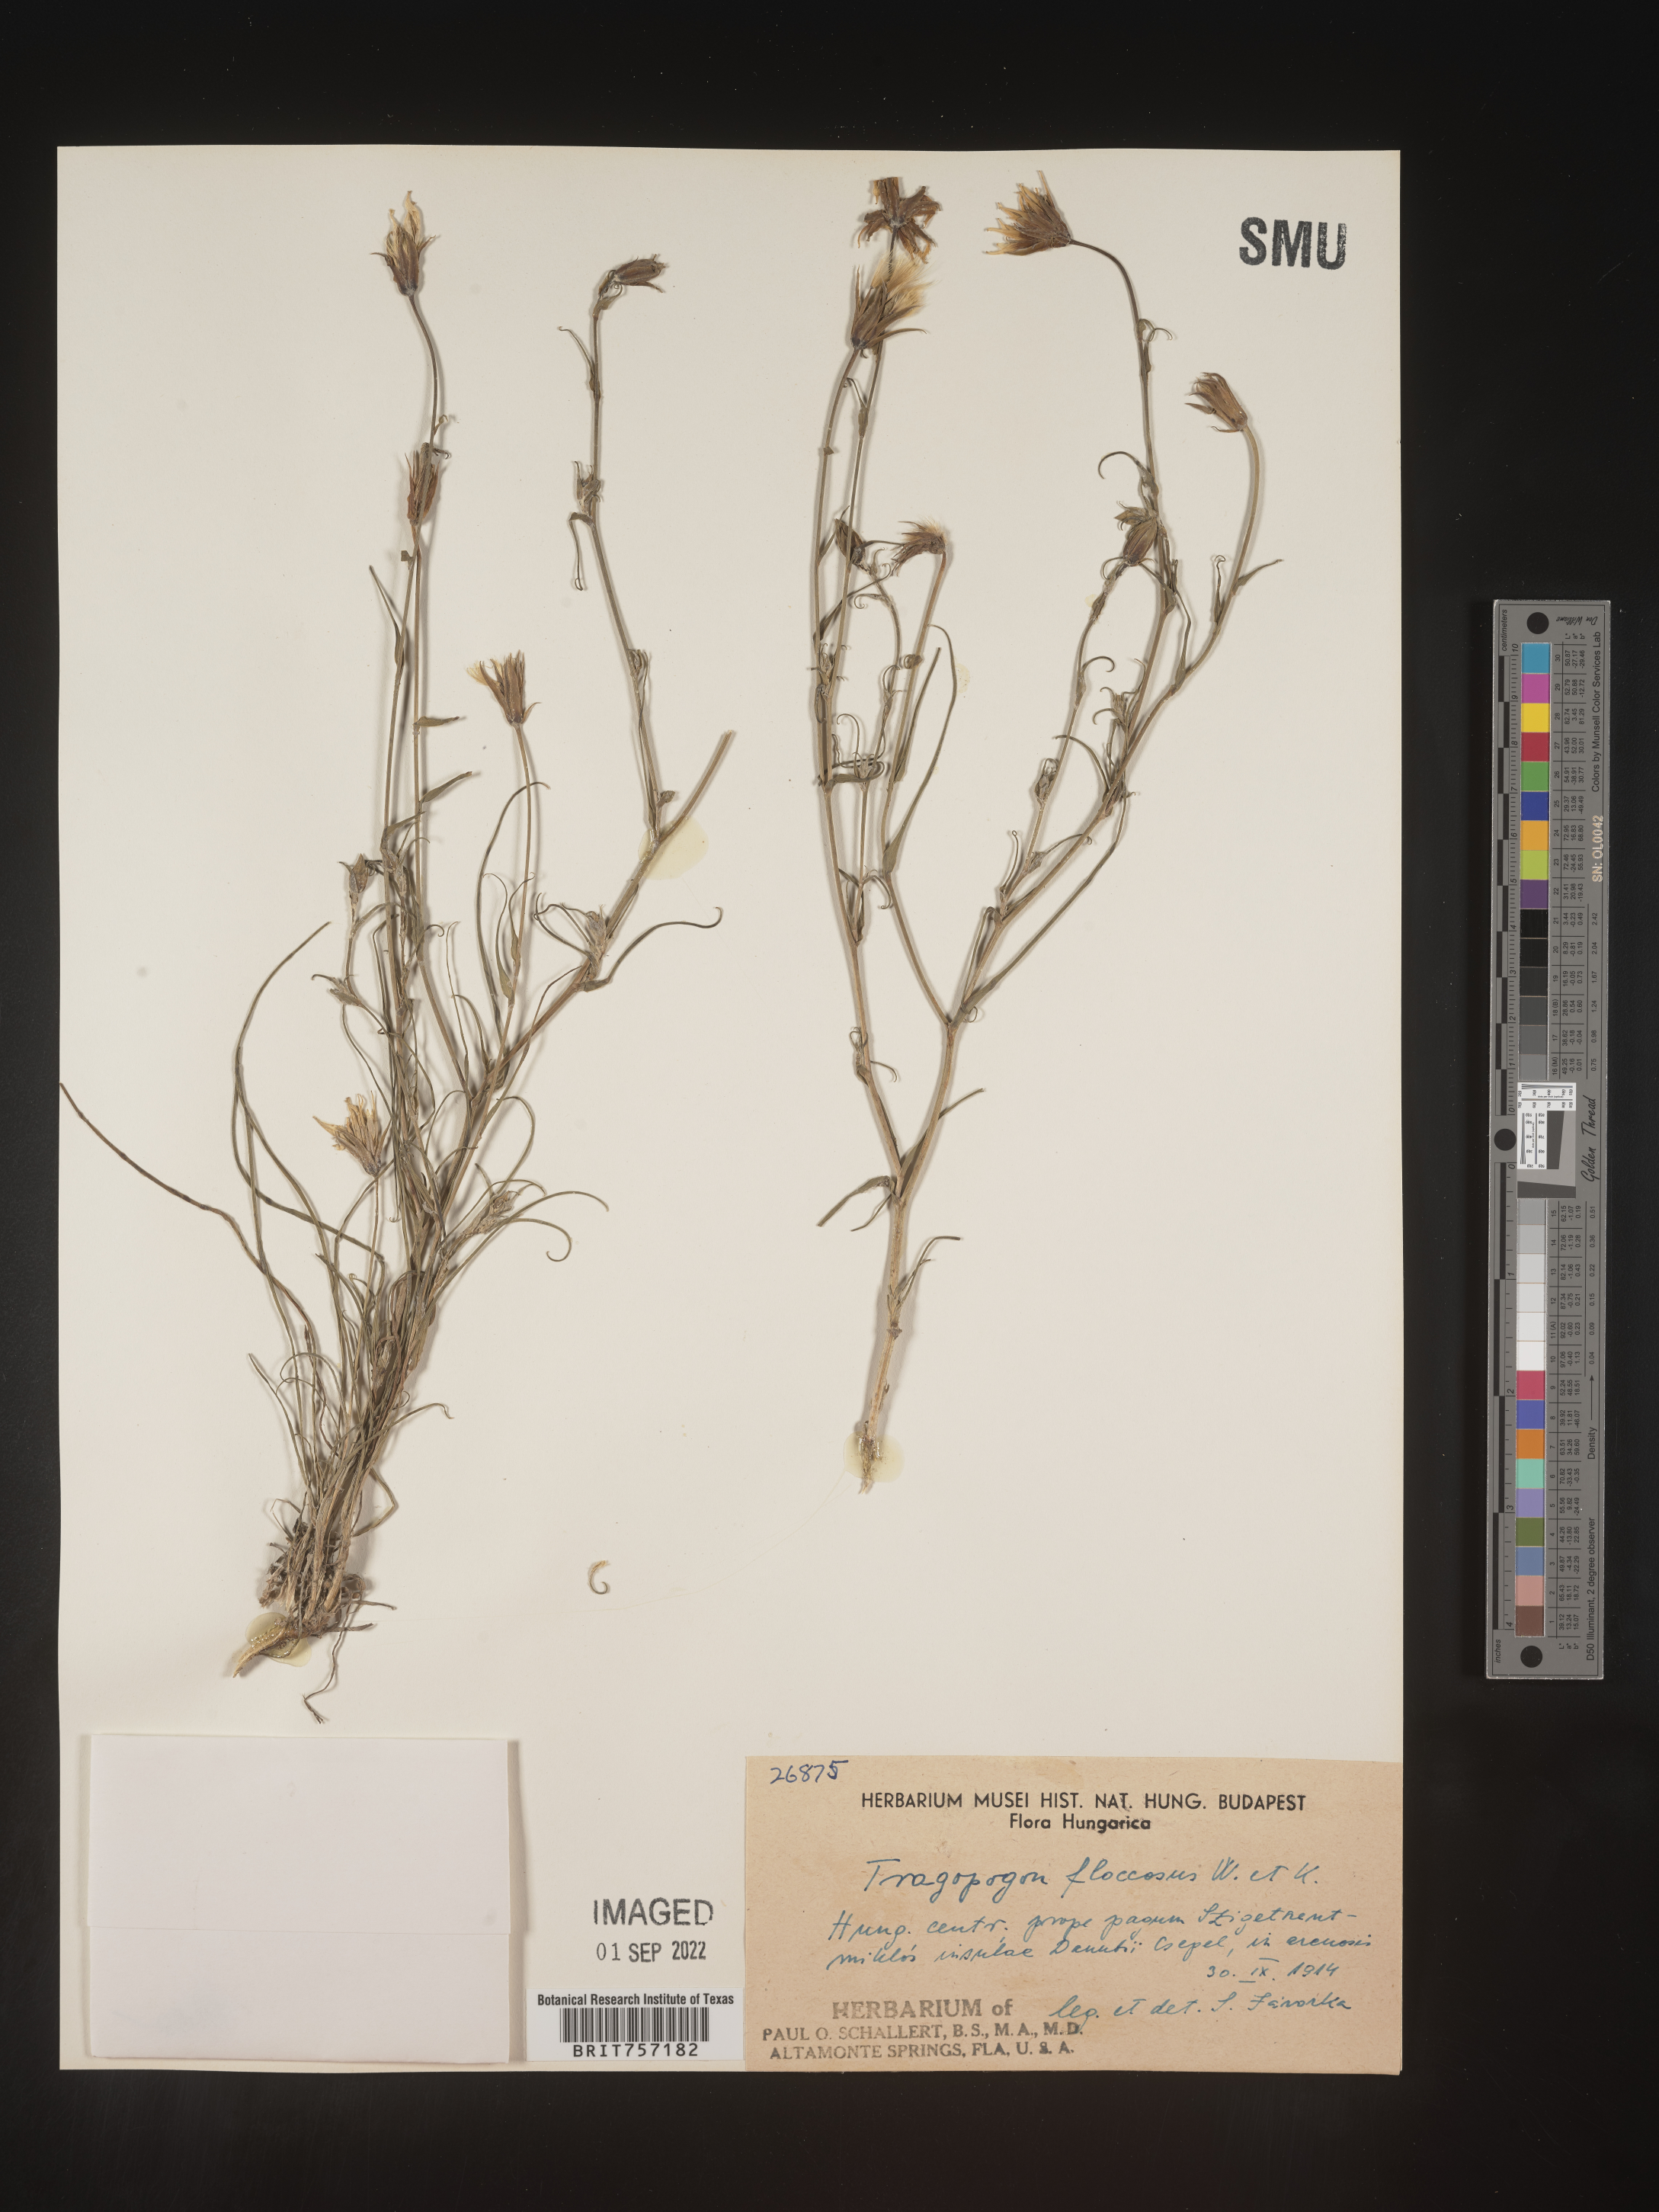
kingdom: Plantae
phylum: Tracheophyta
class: Magnoliopsida
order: Asterales
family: Asteraceae
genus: Tragopogon
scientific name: Tragopogon
